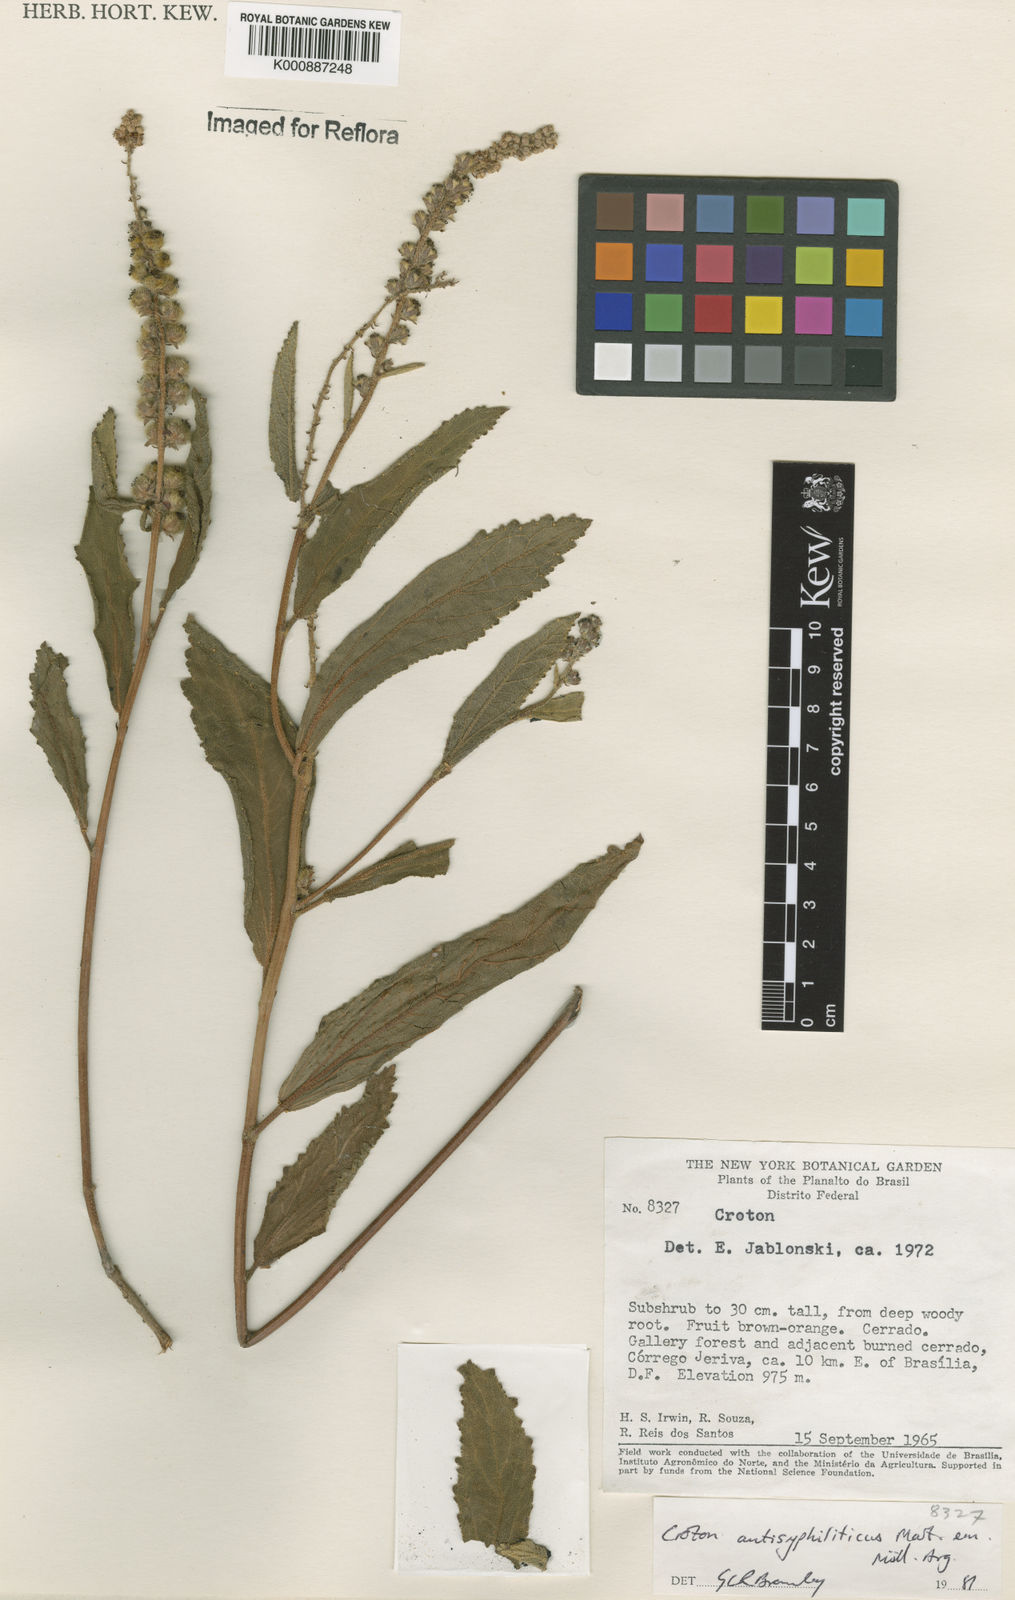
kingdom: Plantae
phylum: Tracheophyta
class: Magnoliopsida
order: Malpighiales
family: Euphorbiaceae
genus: Croton
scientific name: Croton antisyphiliticus
